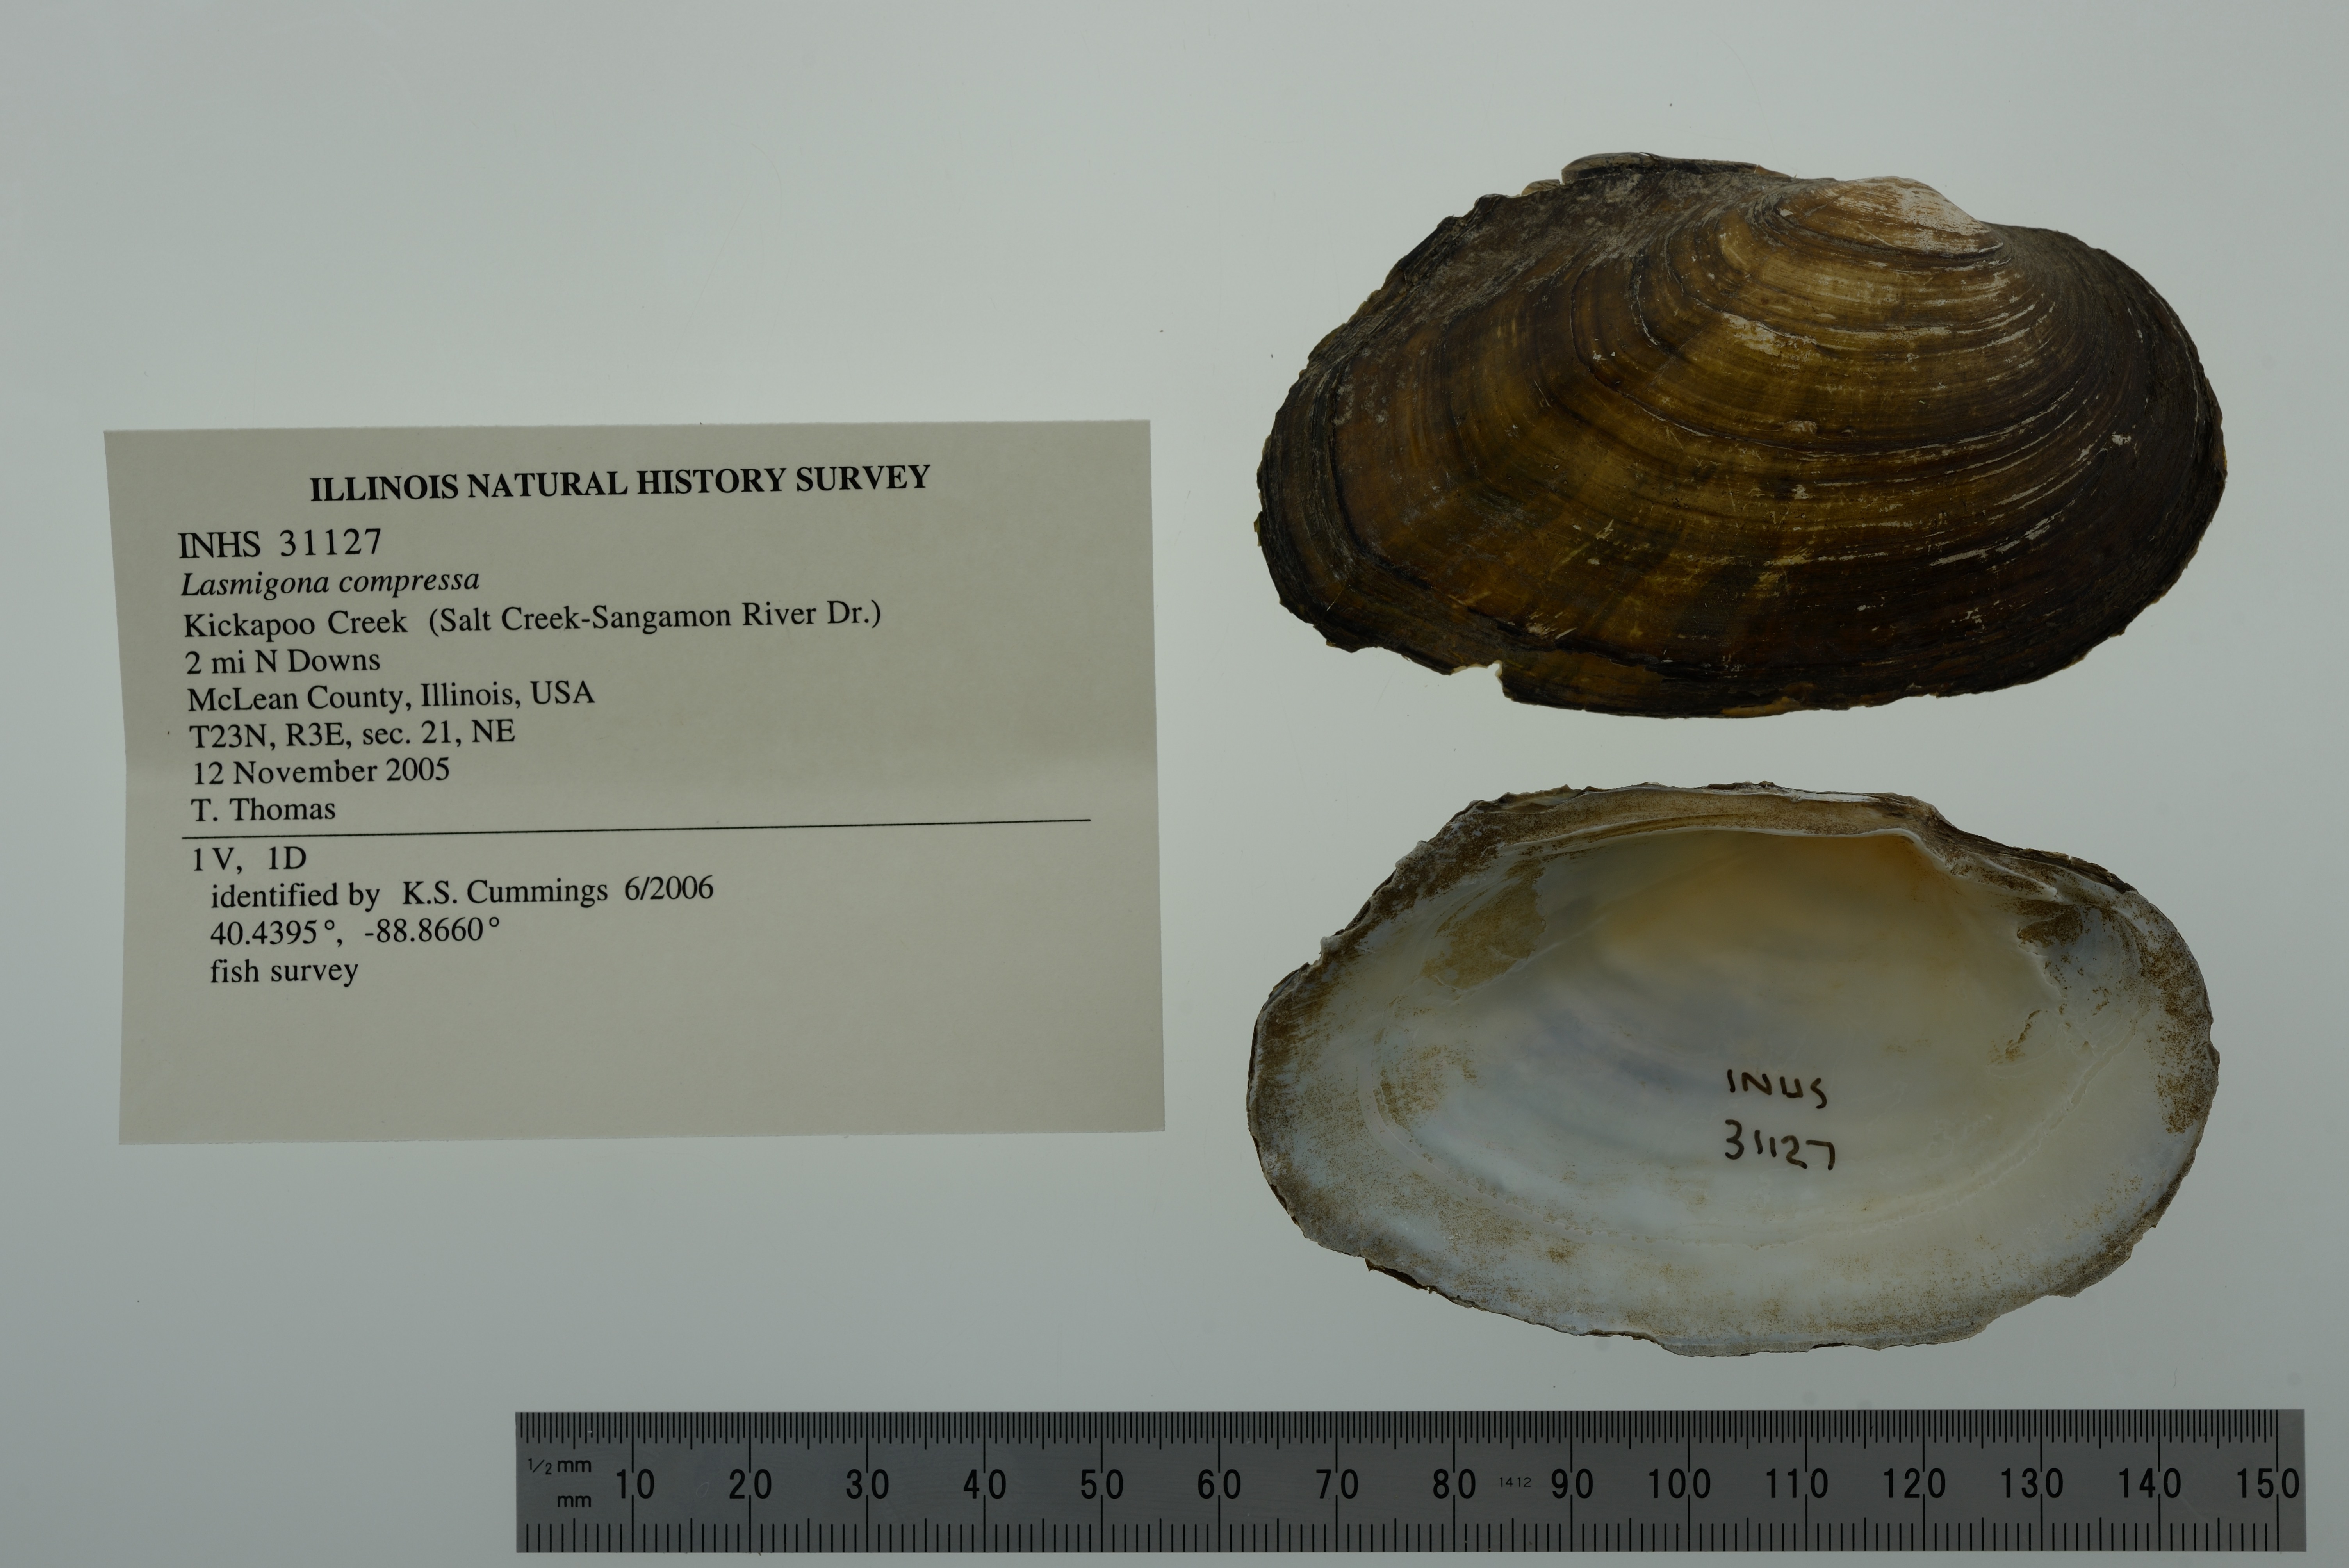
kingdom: Animalia
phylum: Mollusca
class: Bivalvia
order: Unionida
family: Unionidae
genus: Lasmigona
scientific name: Lasmigona compressa
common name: Creek heelsplitter
